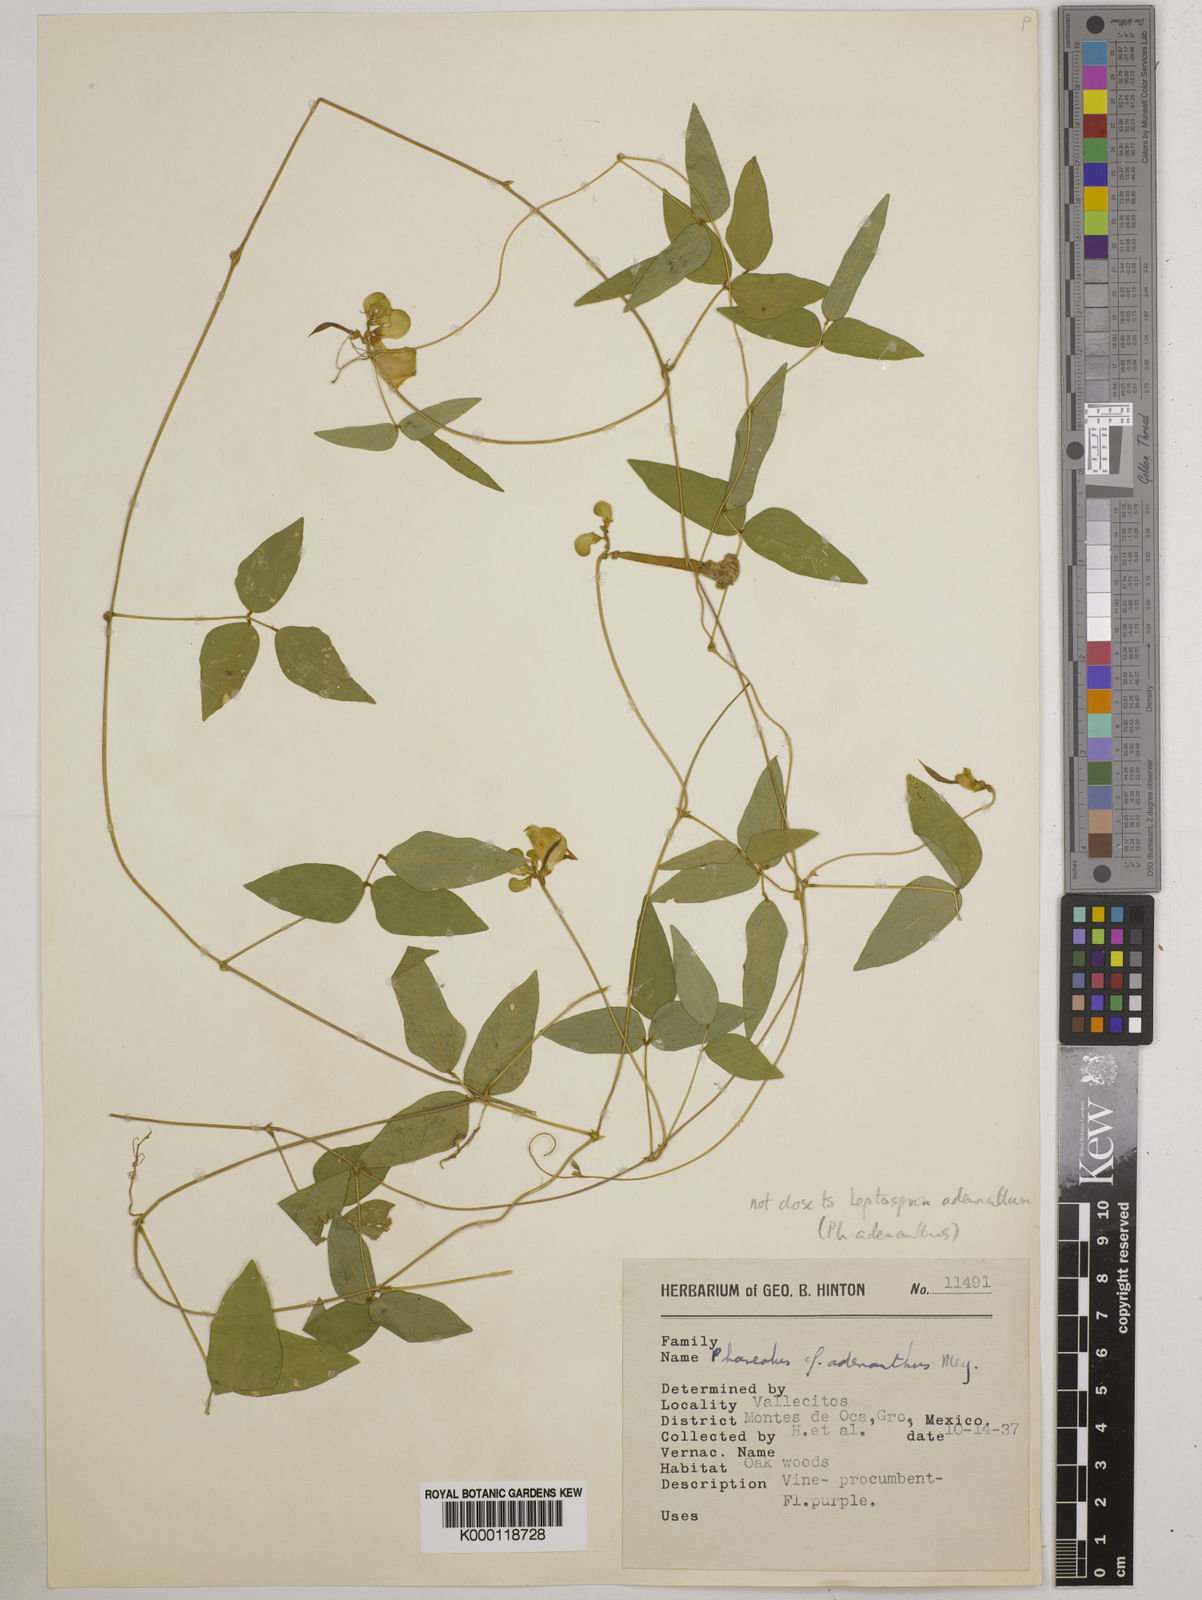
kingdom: Plantae
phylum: Tracheophyta
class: Magnoliopsida
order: Fabales
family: Fabaceae
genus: Vigna
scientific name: Vigna
